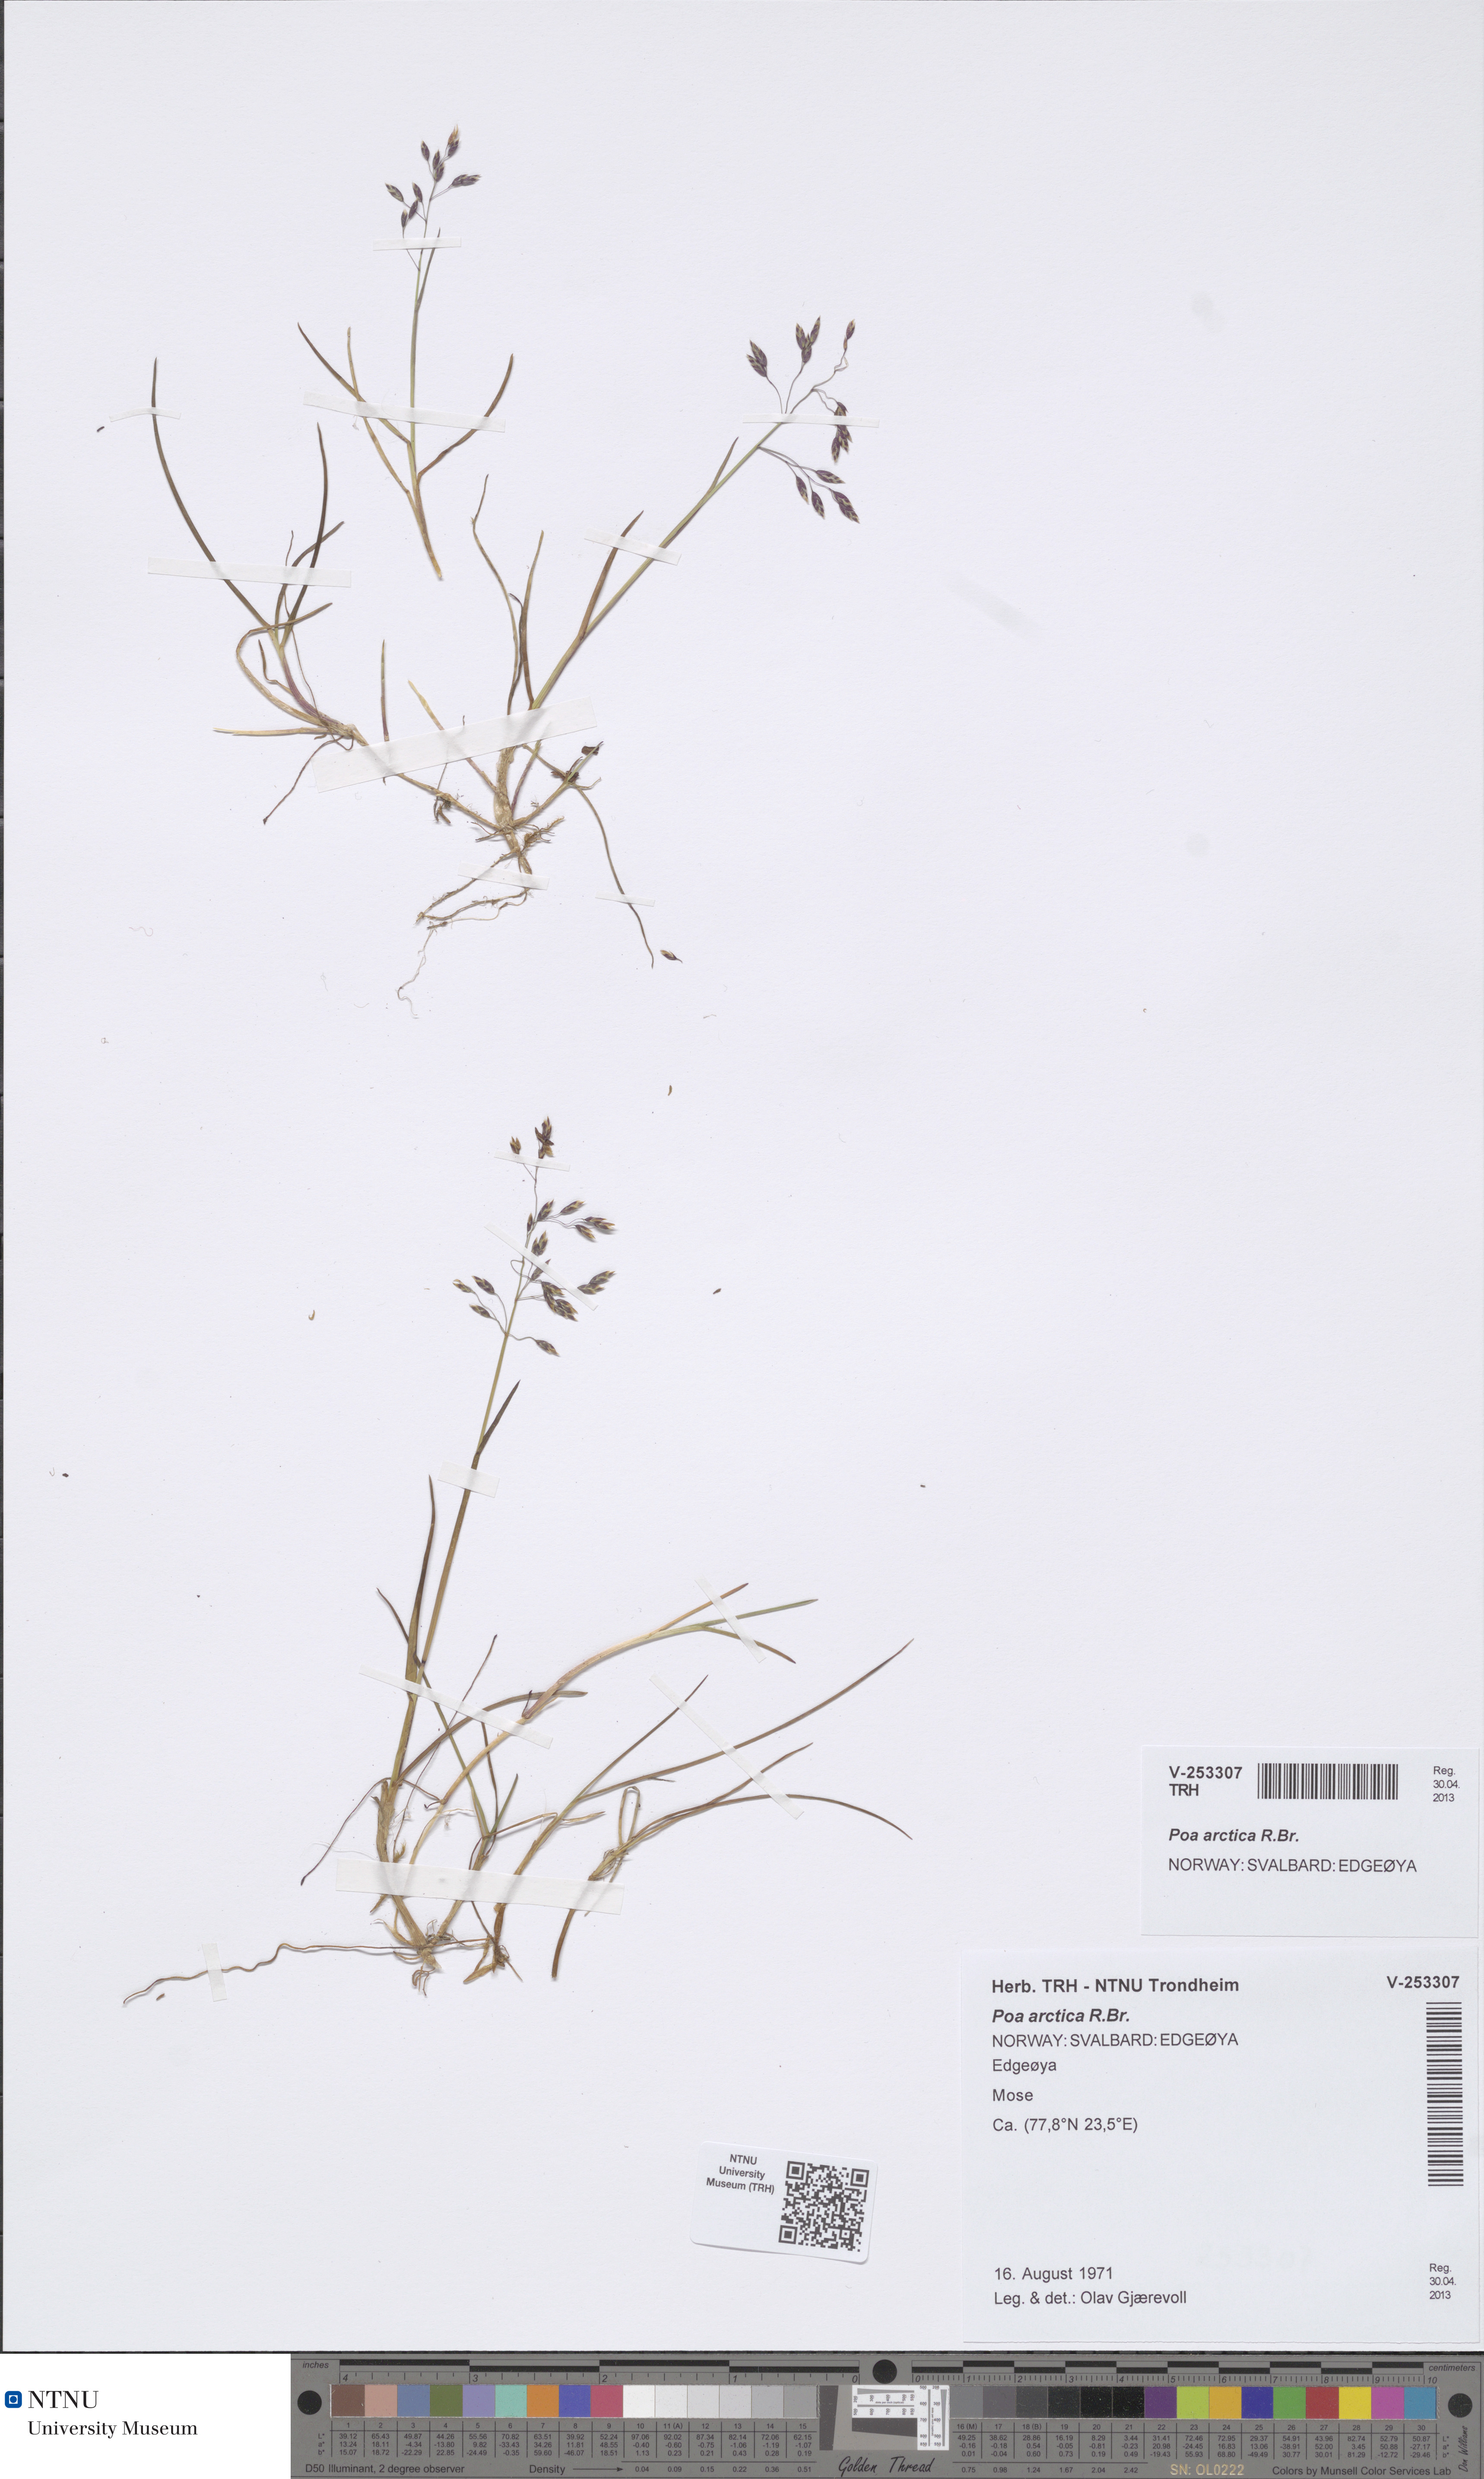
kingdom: Plantae
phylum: Tracheophyta
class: Liliopsida
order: Poales
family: Poaceae
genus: Poa
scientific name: Poa arctica
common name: Arctic bluegrass
